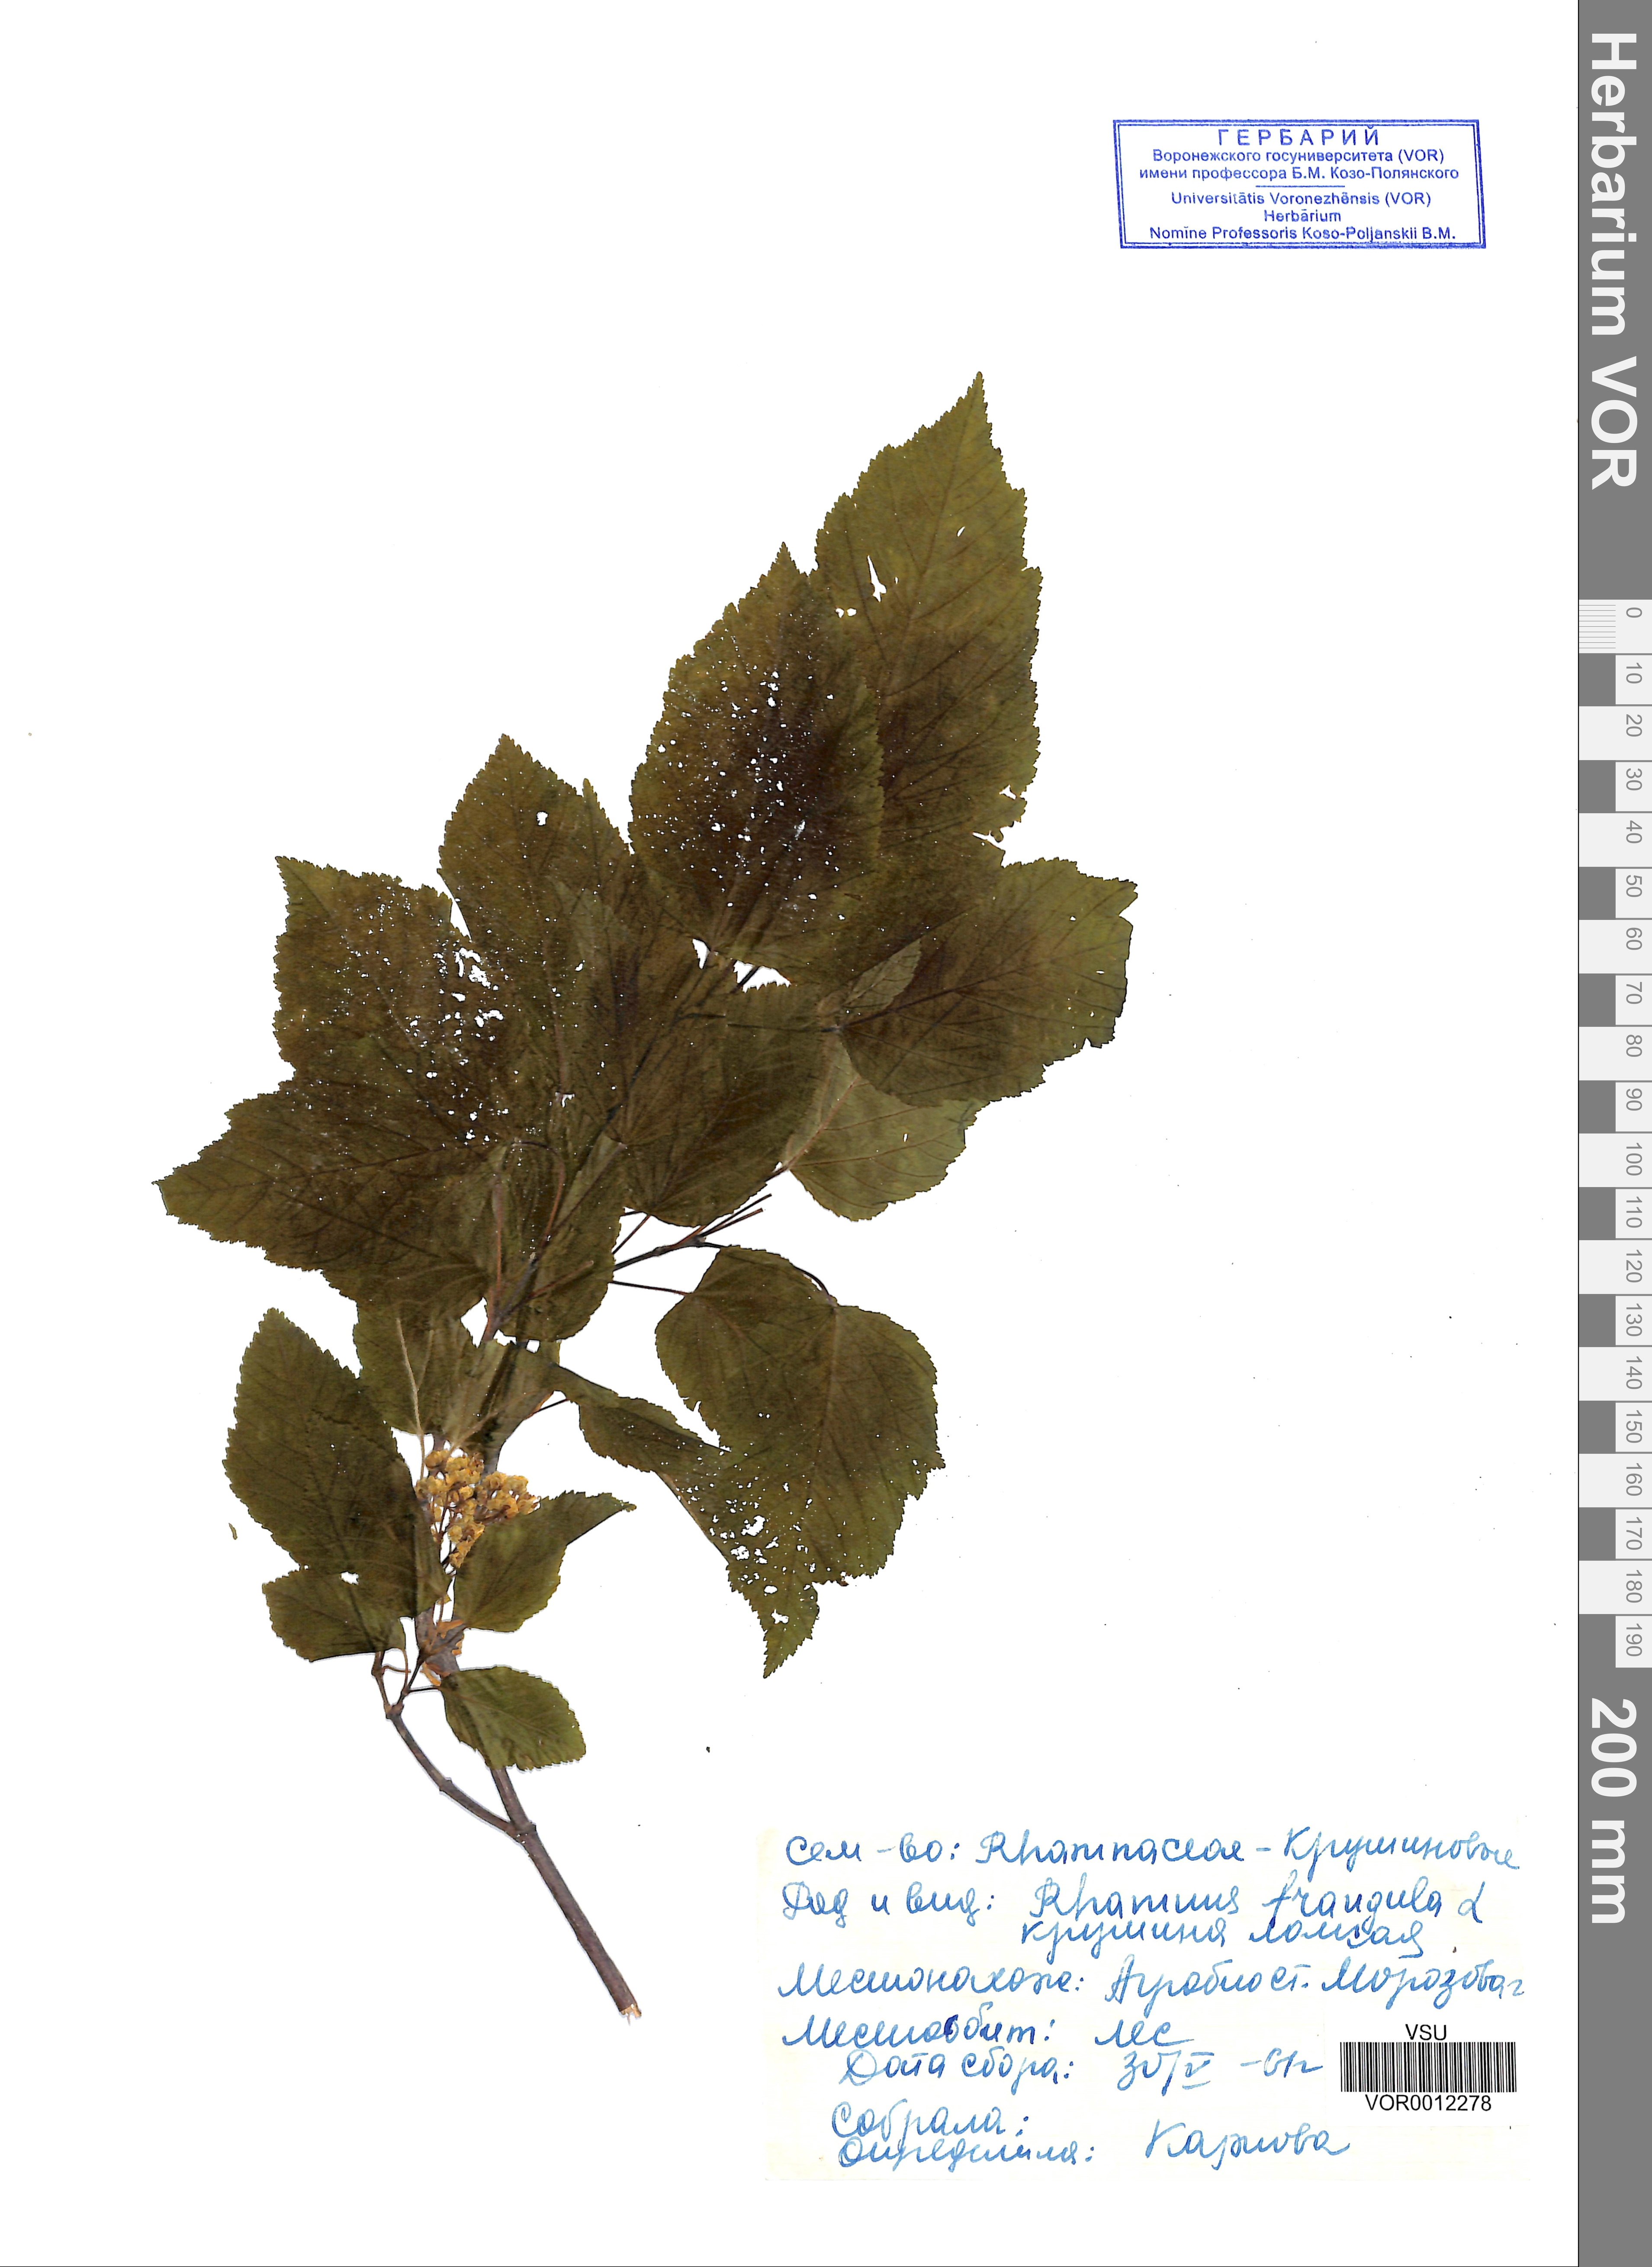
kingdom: Plantae
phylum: Tracheophyta
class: Magnoliopsida
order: Rosales
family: Rhamnaceae
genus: Frangula
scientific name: Frangula alnus
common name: Alder buckthorn
